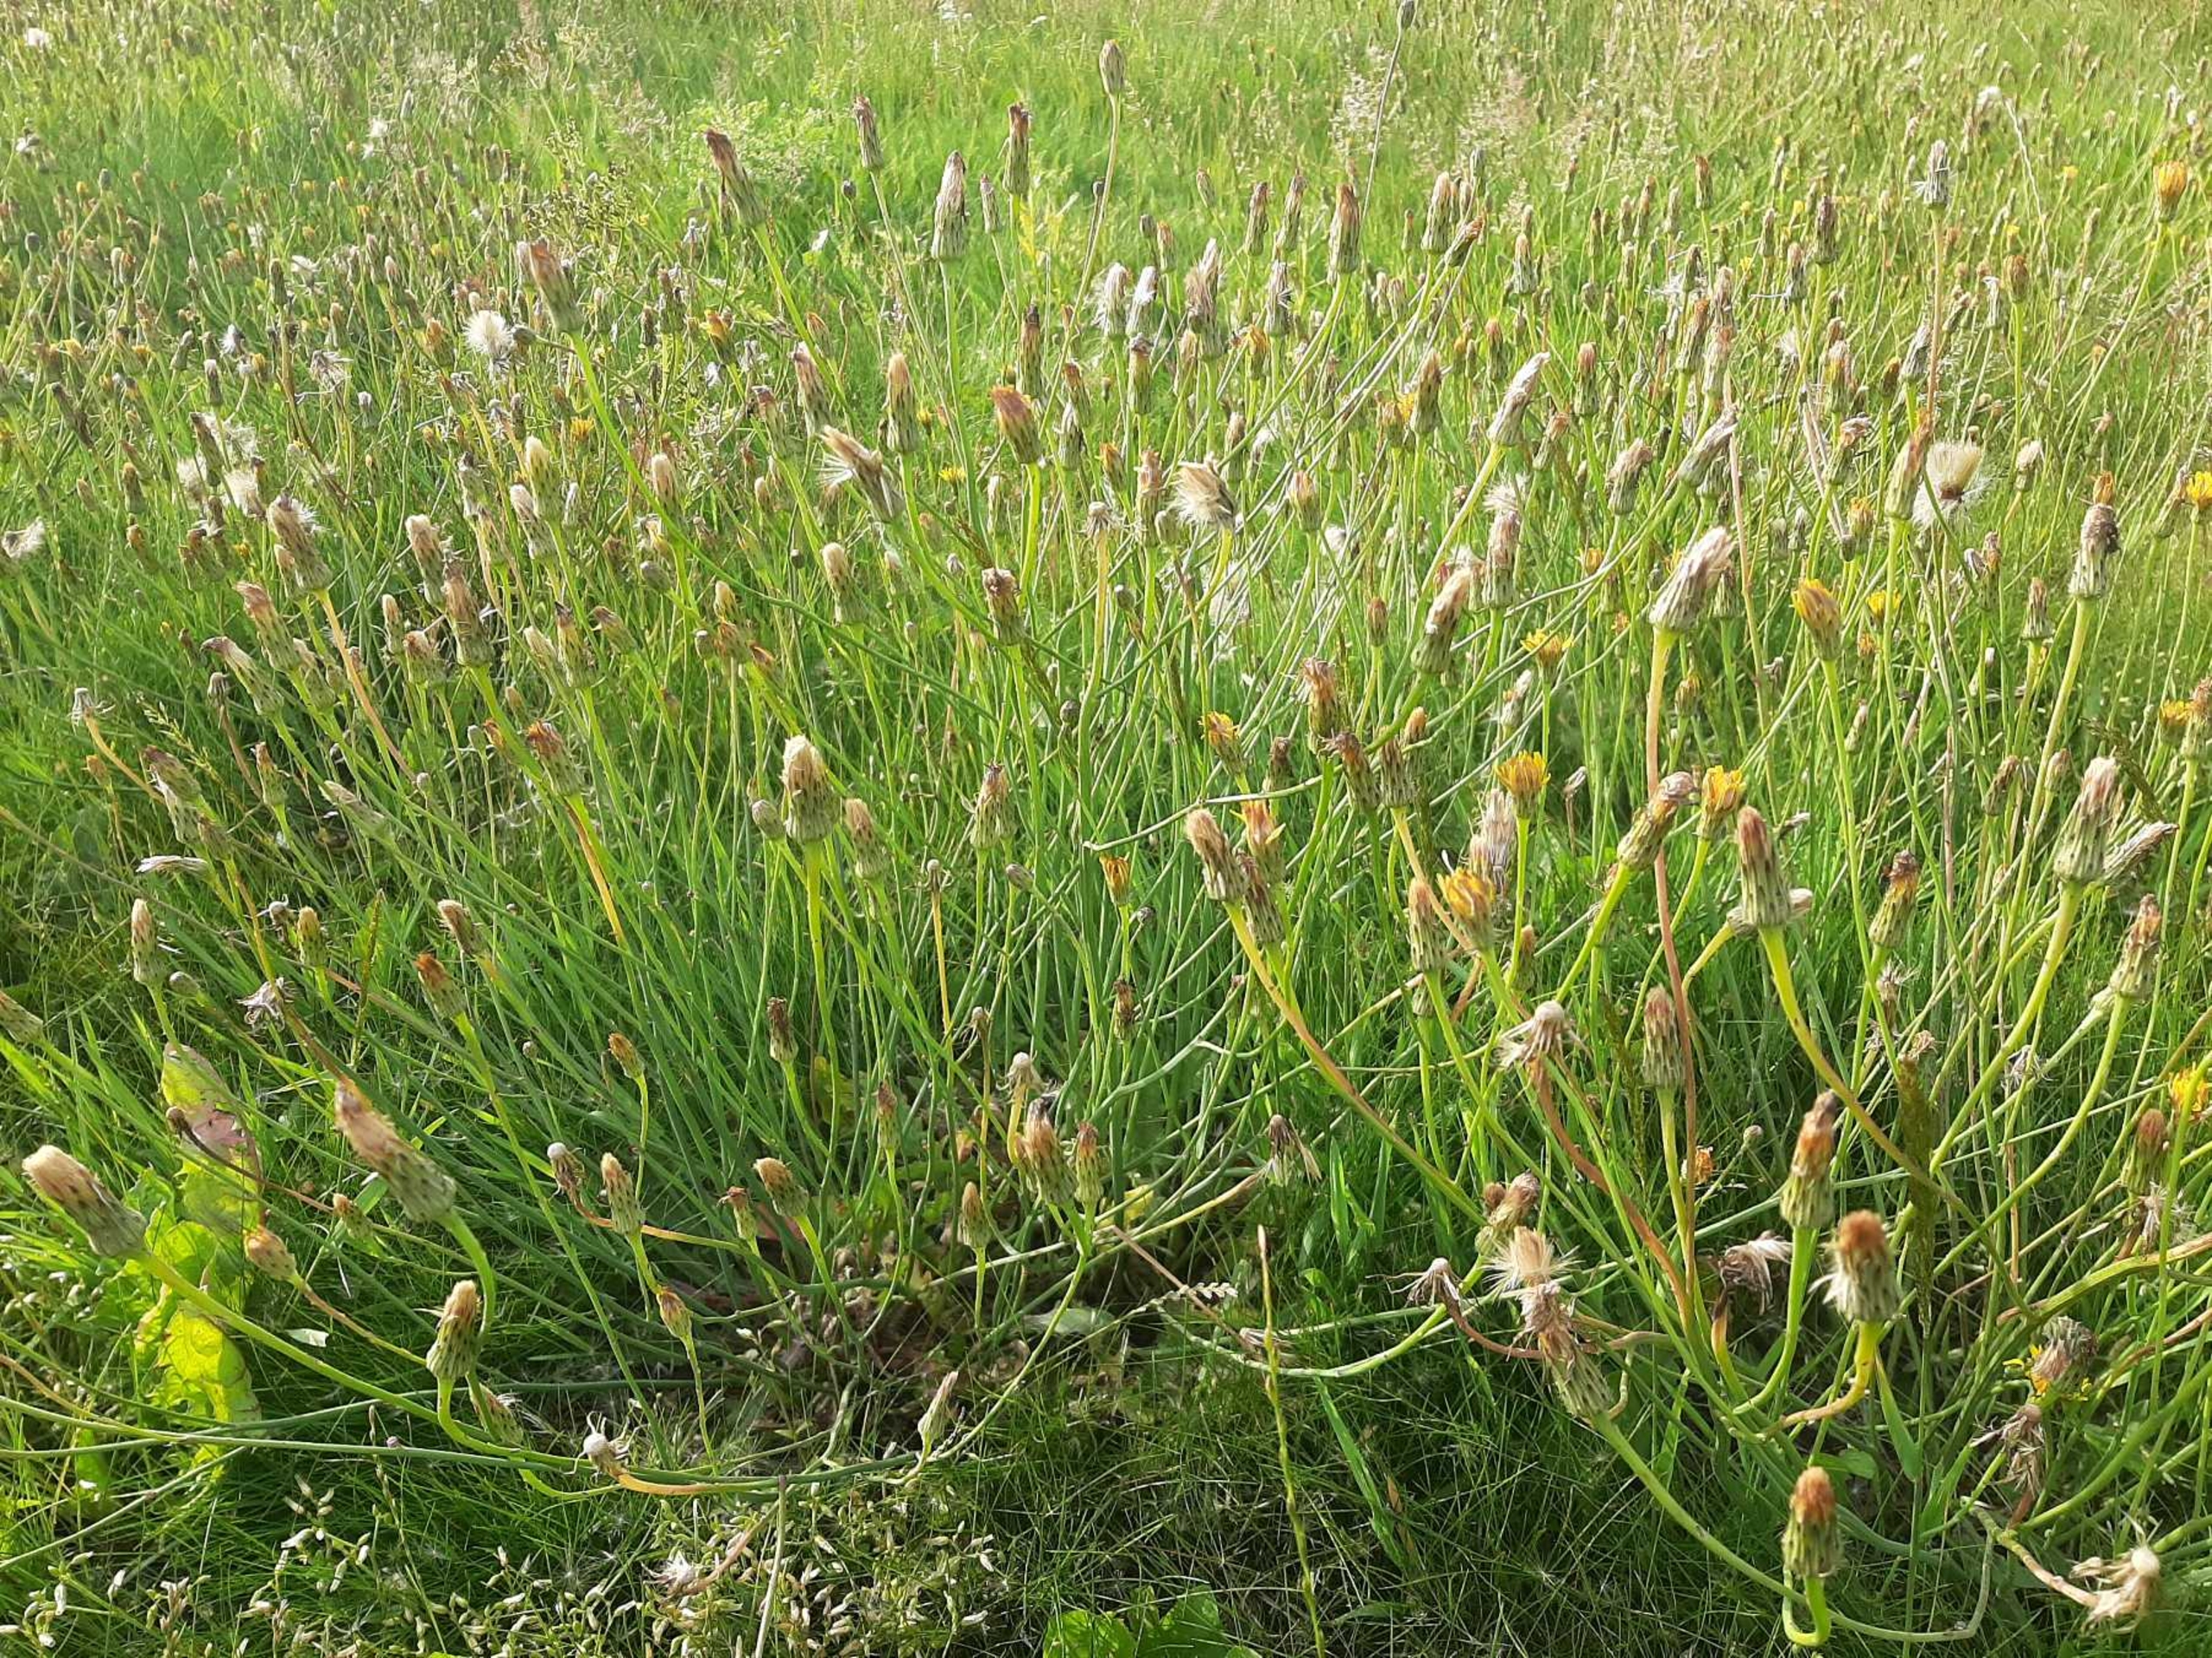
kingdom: Plantae
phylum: Tracheophyta
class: Magnoliopsida
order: Asterales
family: Asteraceae
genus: Hypochaeris
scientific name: Hypochaeris radicata
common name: Almindelig kongepen
